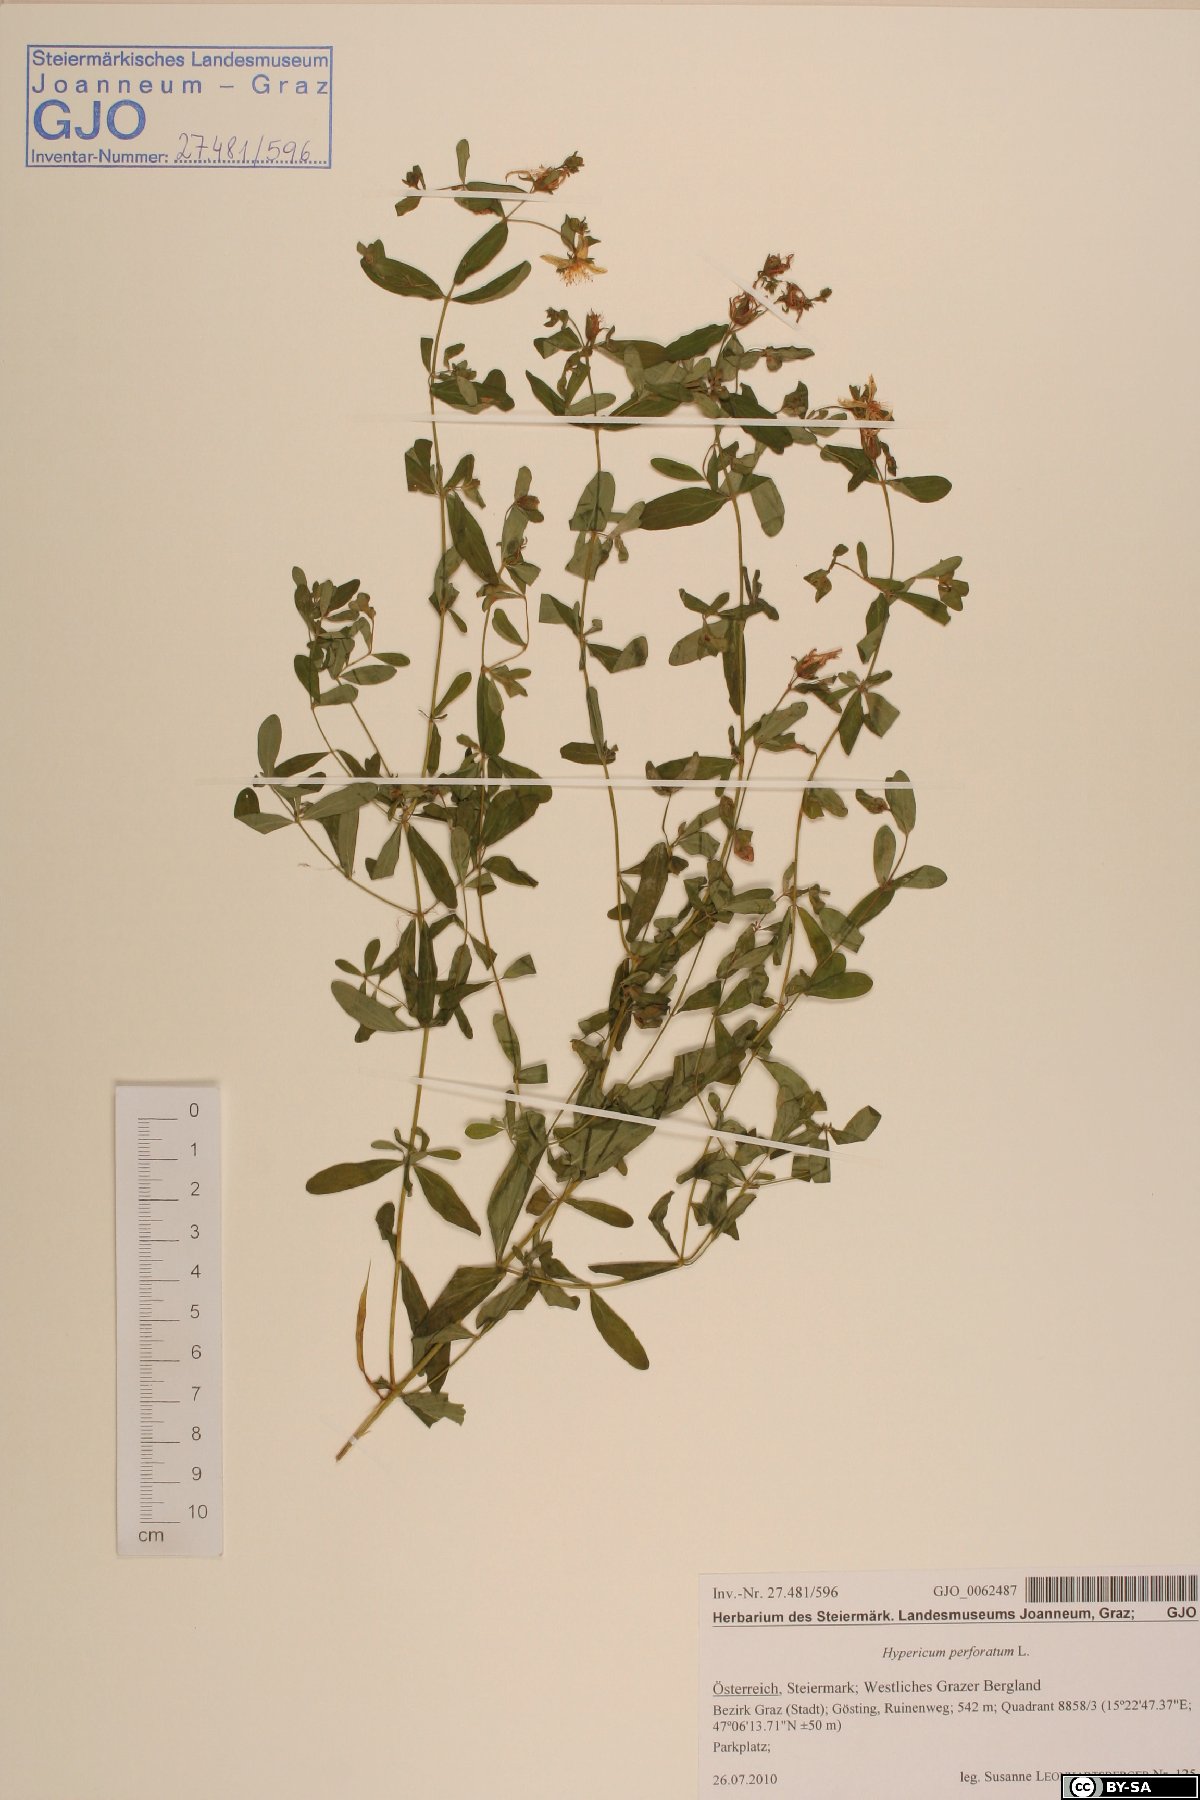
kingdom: Plantae
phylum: Tracheophyta
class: Magnoliopsida
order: Malpighiales
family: Hypericaceae
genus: Hypericum
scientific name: Hypericum perforatum
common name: Common st. johnswort
